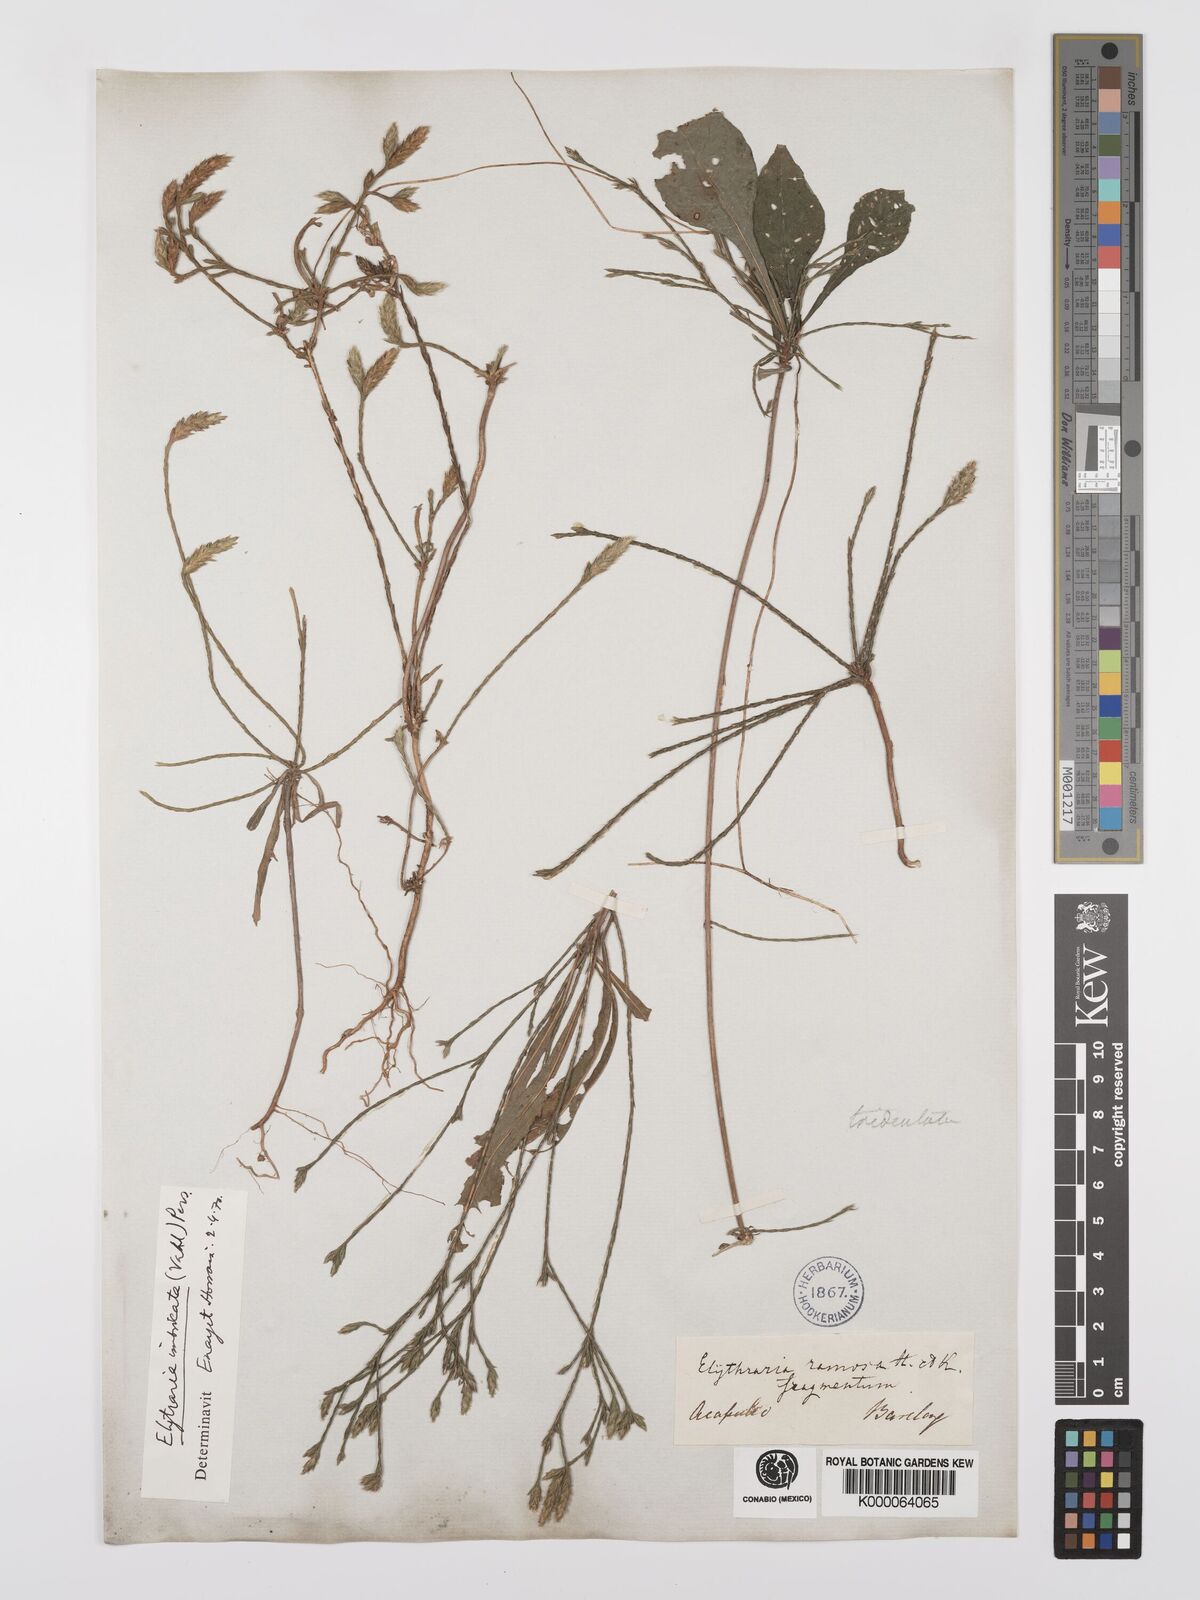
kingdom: Plantae
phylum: Tracheophyta
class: Magnoliopsida
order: Lamiales
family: Acanthaceae
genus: Elytraria
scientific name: Elytraria imbricata
